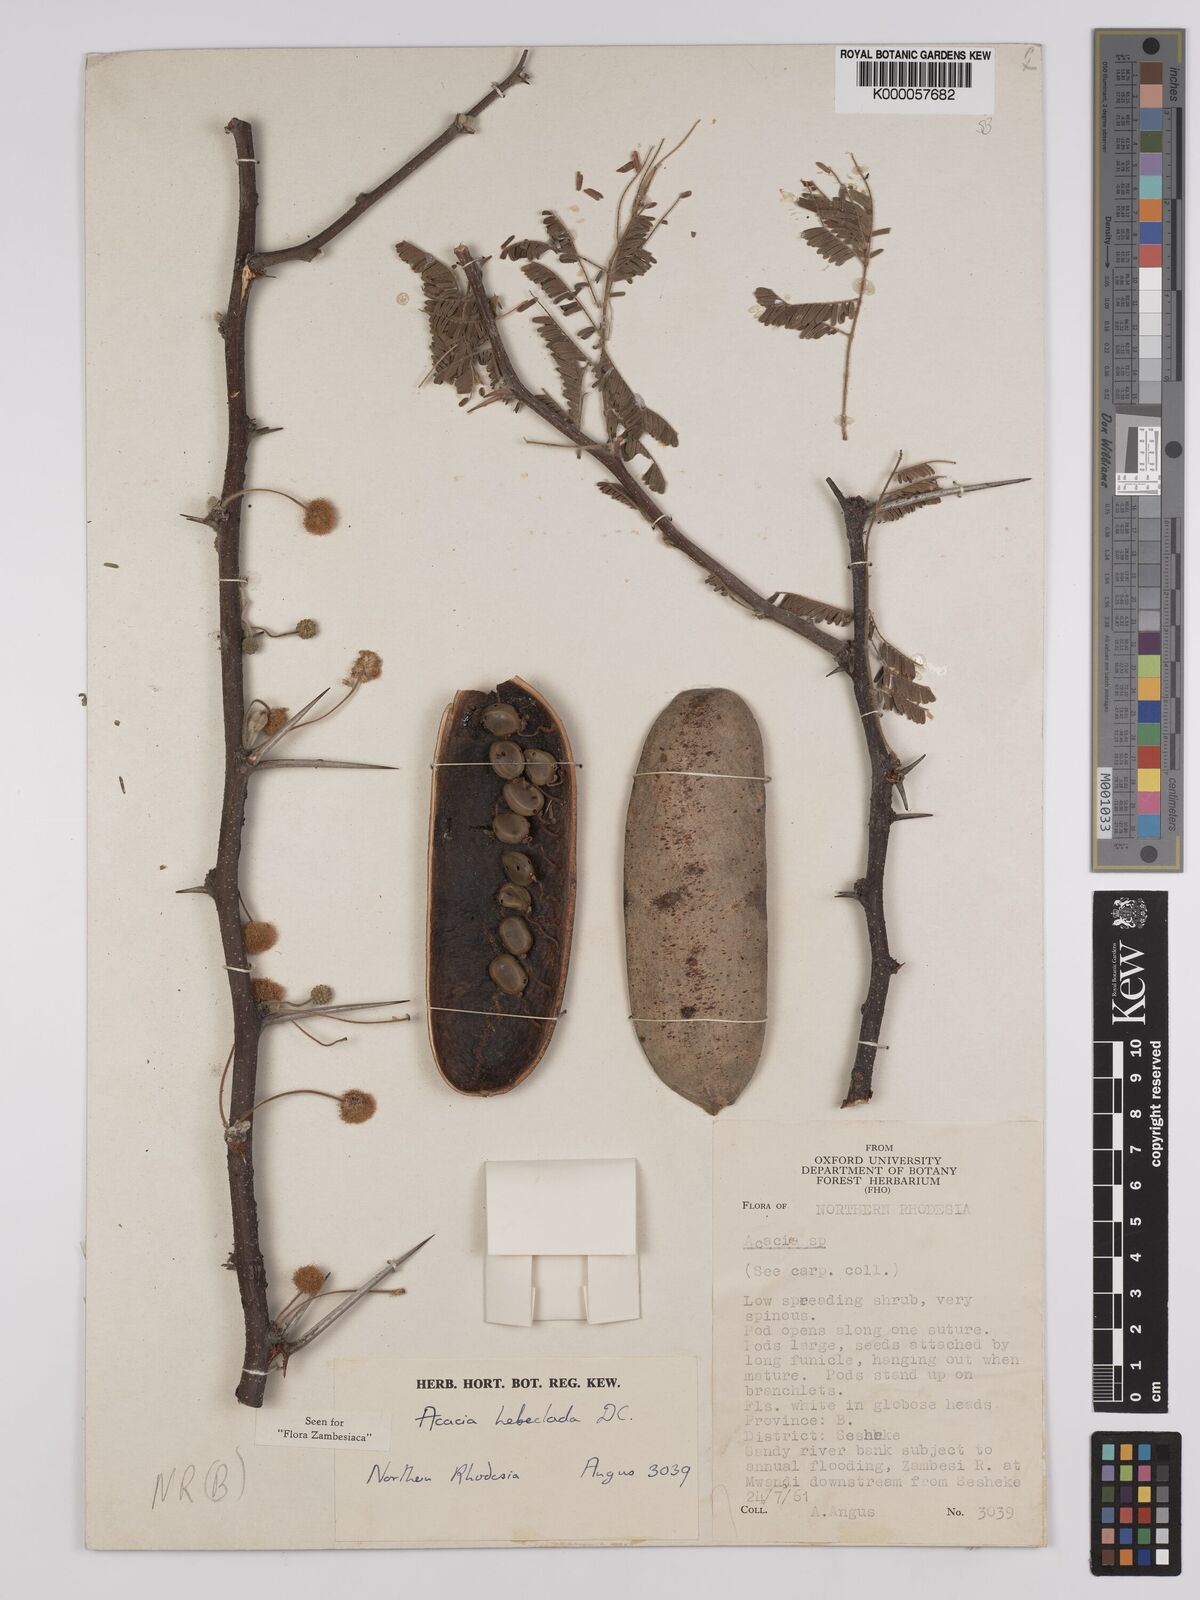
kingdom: Plantae
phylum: Tracheophyta
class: Magnoliopsida
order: Fabales
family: Fabaceae
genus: Vachellia
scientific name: Vachellia hebeclada
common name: Candle thorn
